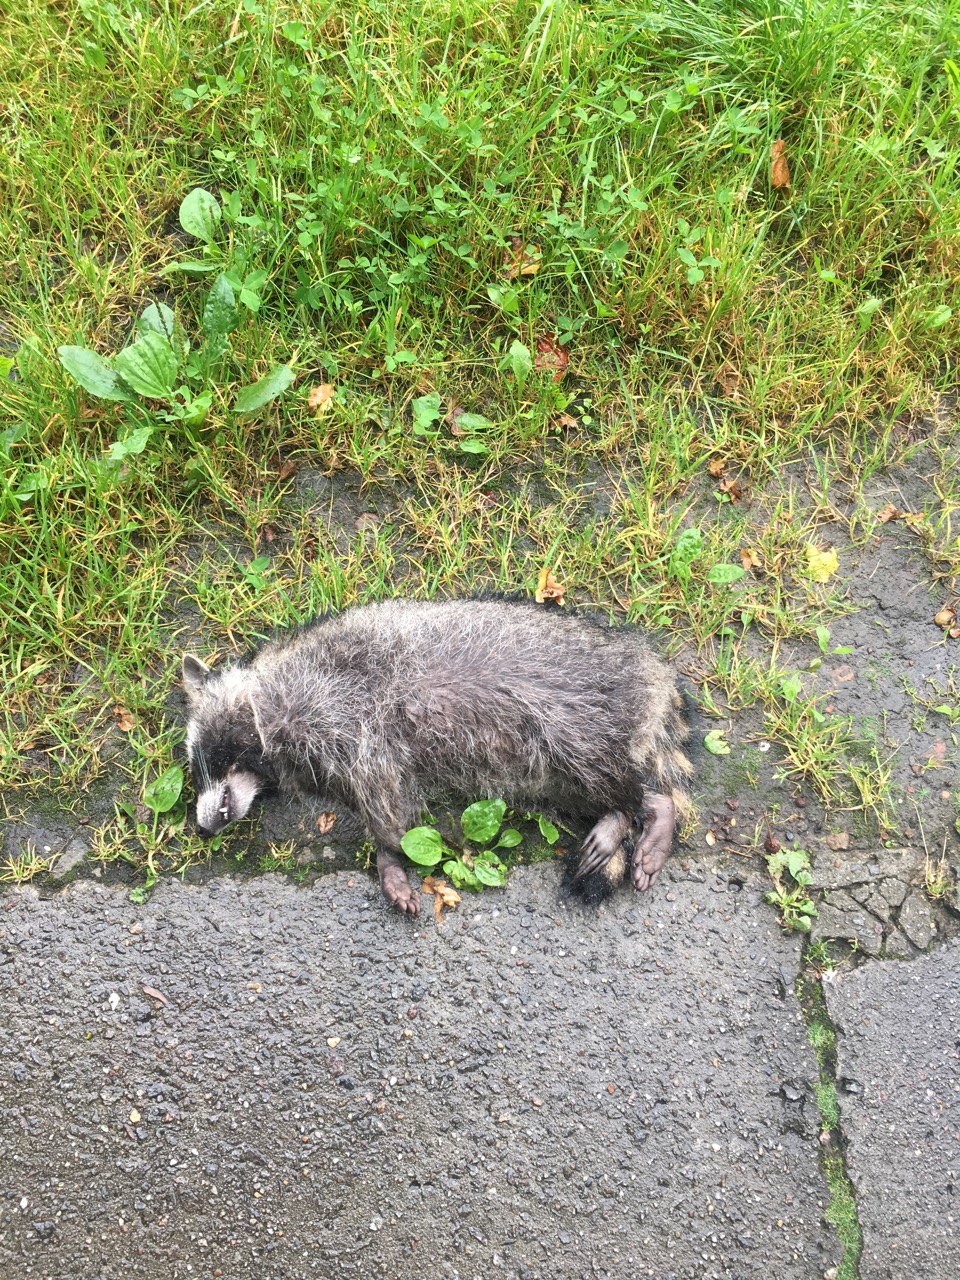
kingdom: Animalia
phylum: Chordata
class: Mammalia
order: Carnivora
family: Procyonidae
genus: Procyon
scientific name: Procyon lotor
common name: Raccoon
